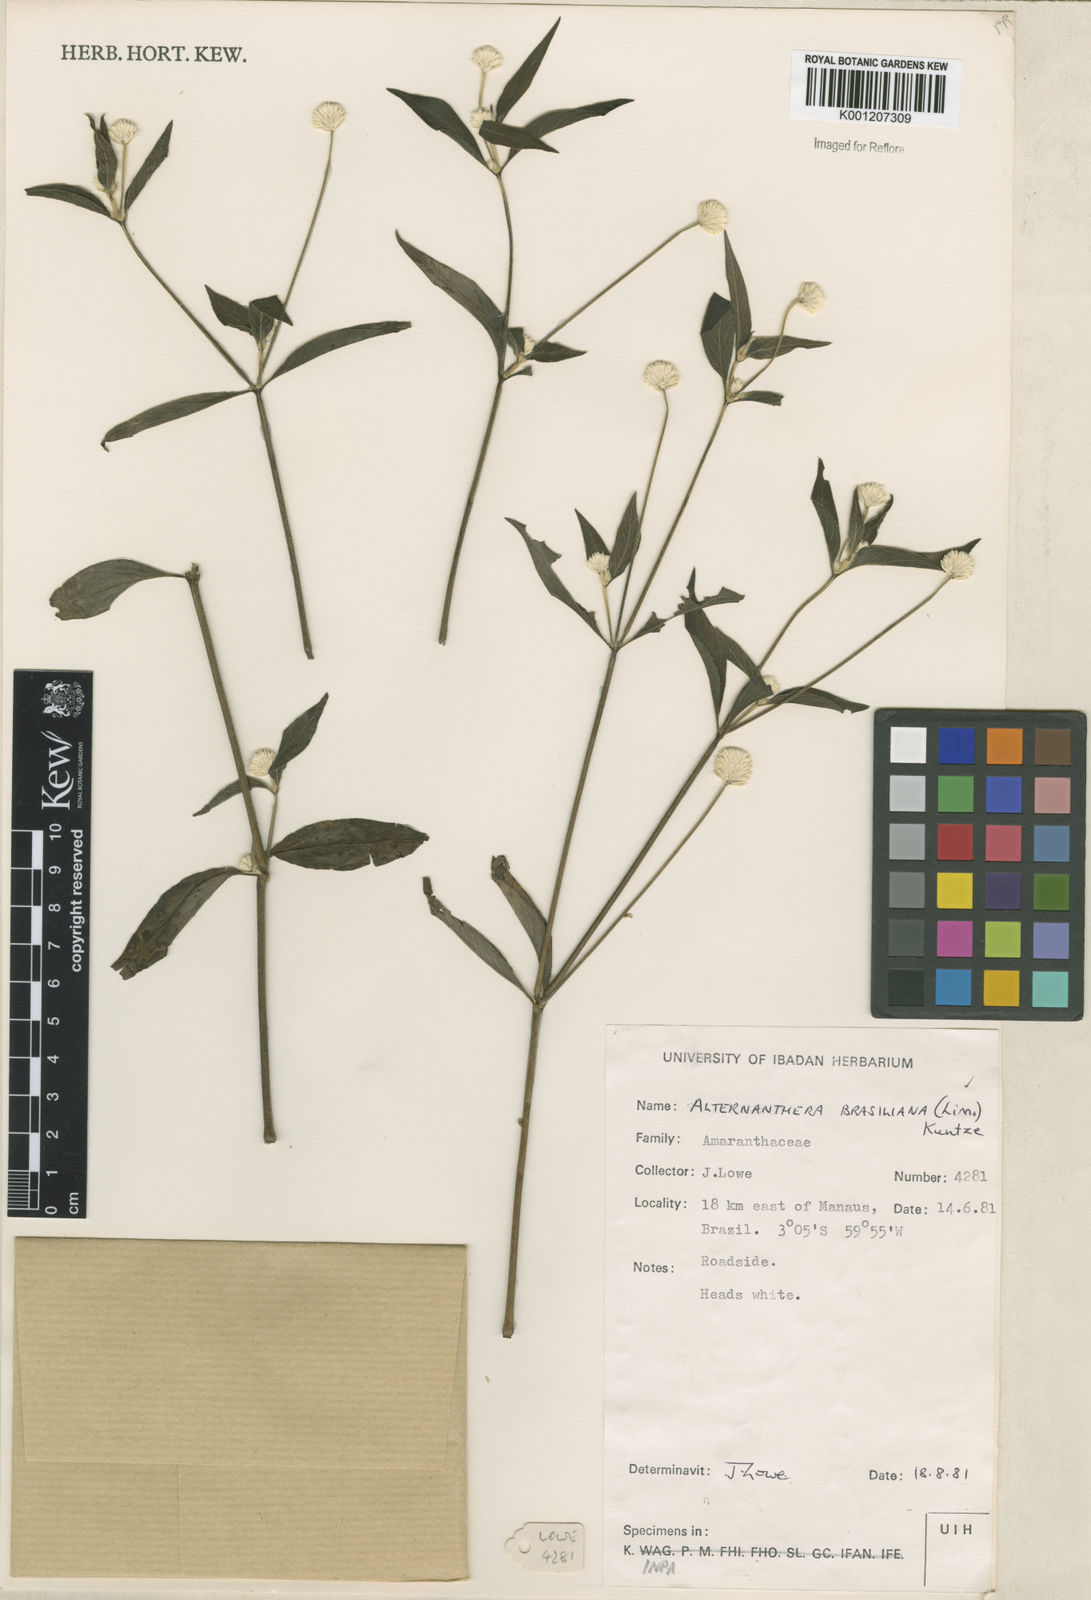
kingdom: Plantae
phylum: Tracheophyta
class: Magnoliopsida
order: Caryophyllales
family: Amaranthaceae
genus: Alternanthera
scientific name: Alternanthera brasiliana
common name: Brazilian joyweed
